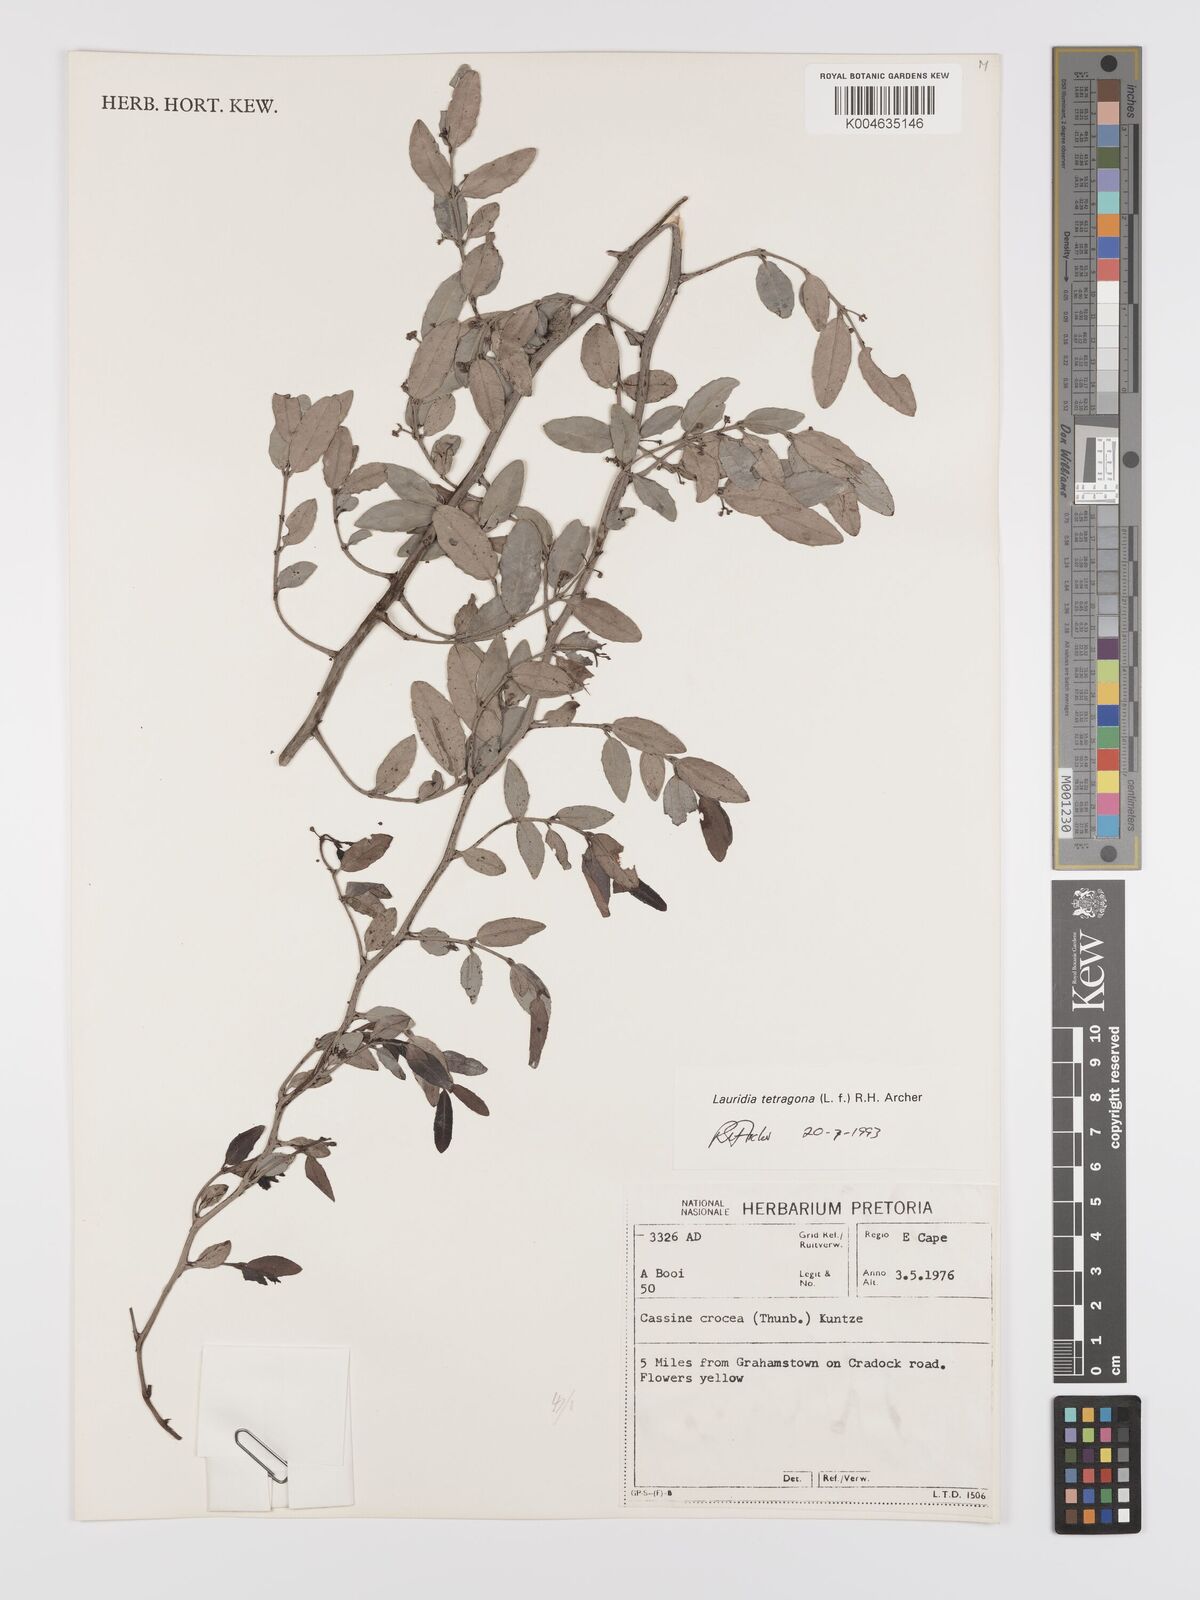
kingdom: Plantae
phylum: Tracheophyta
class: Magnoliopsida
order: Celastrales
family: Celastraceae
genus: Lauridia
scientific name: Lauridia tetragona
